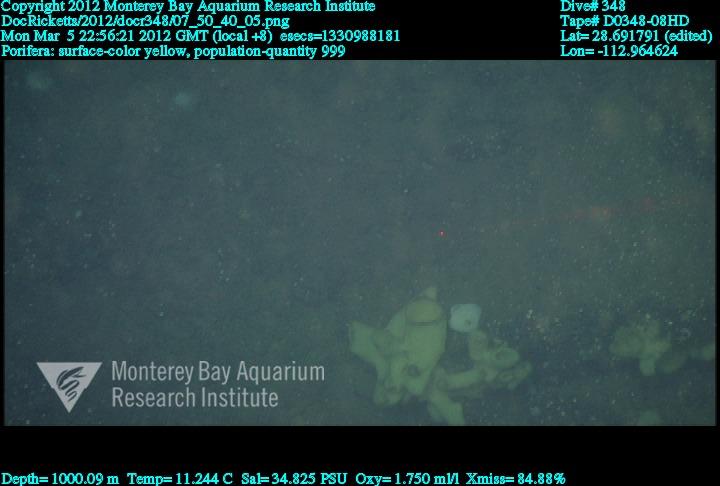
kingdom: Animalia
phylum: Porifera
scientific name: Porifera
